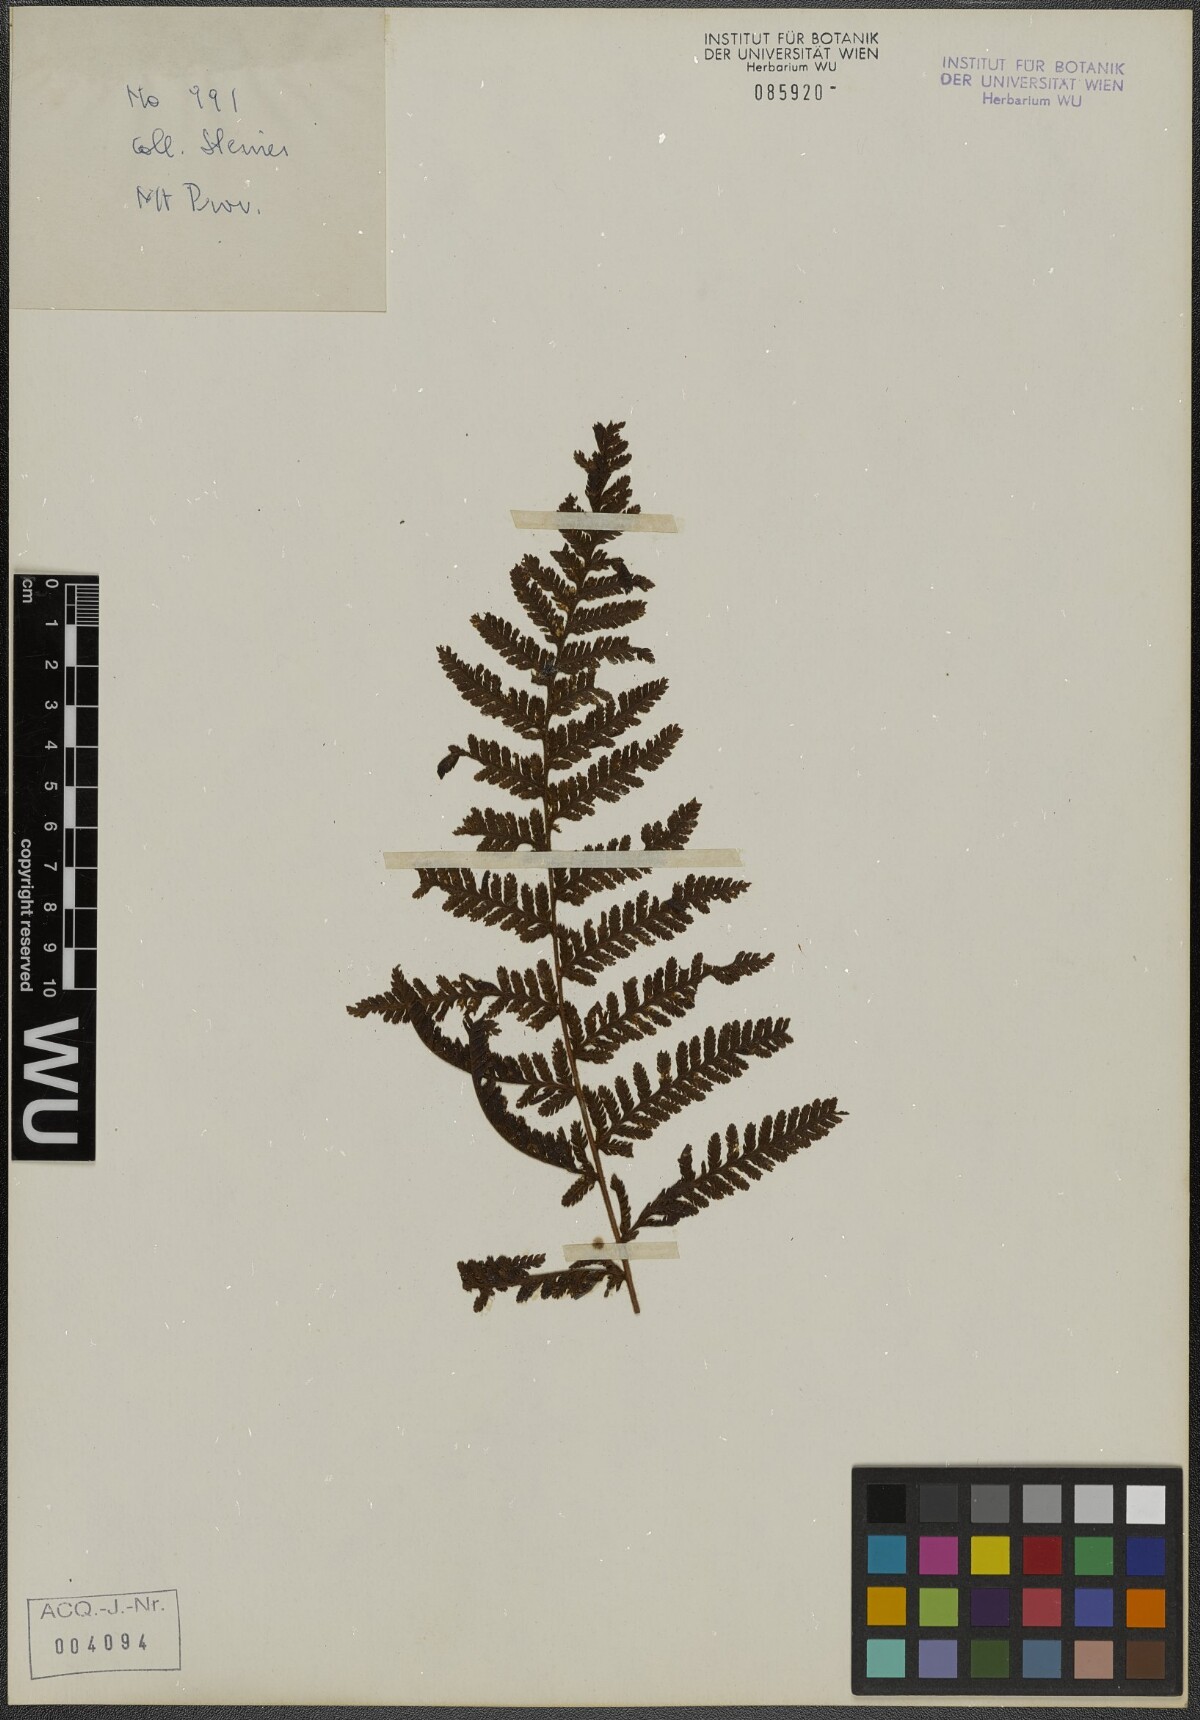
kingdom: Plantae
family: Pteridophyta
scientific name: Pteridophyta
